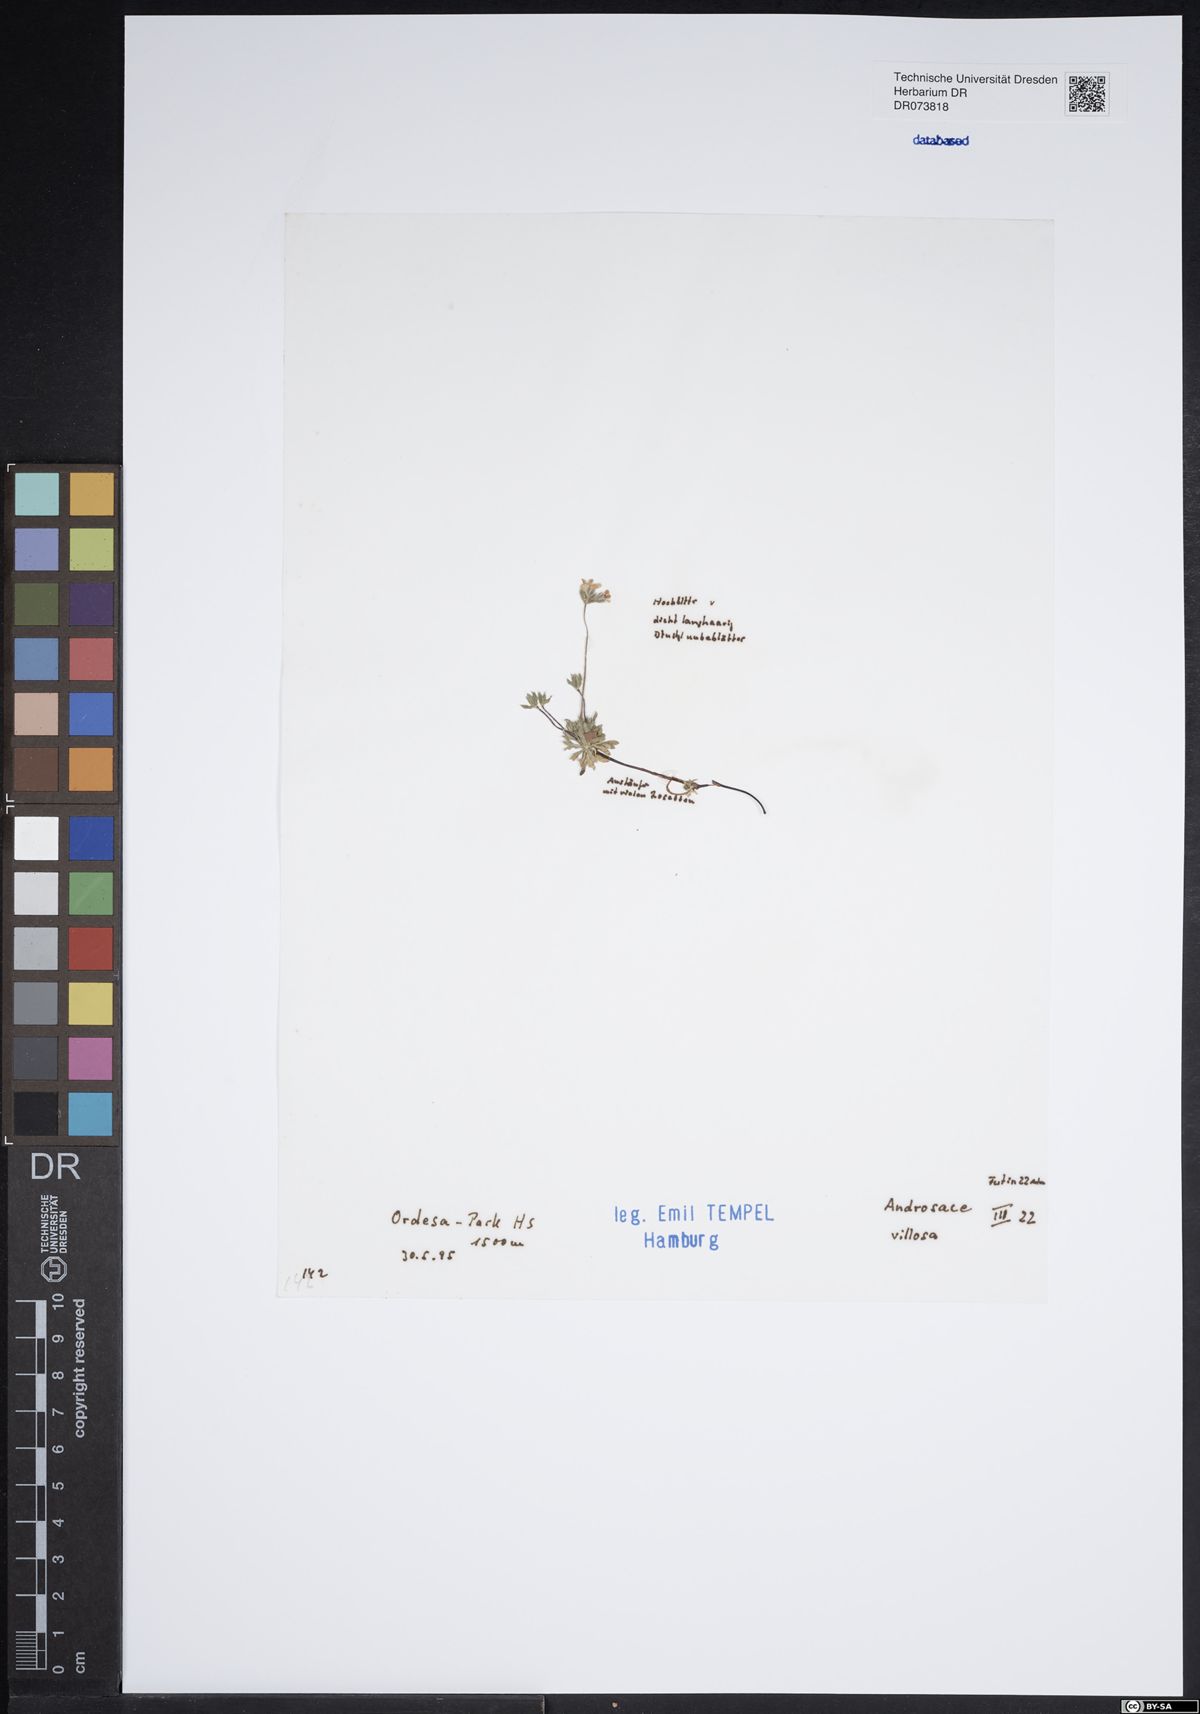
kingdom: Plantae
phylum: Tracheophyta
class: Magnoliopsida
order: Ericales
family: Primulaceae
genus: Androsace
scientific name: Androsace villosa
